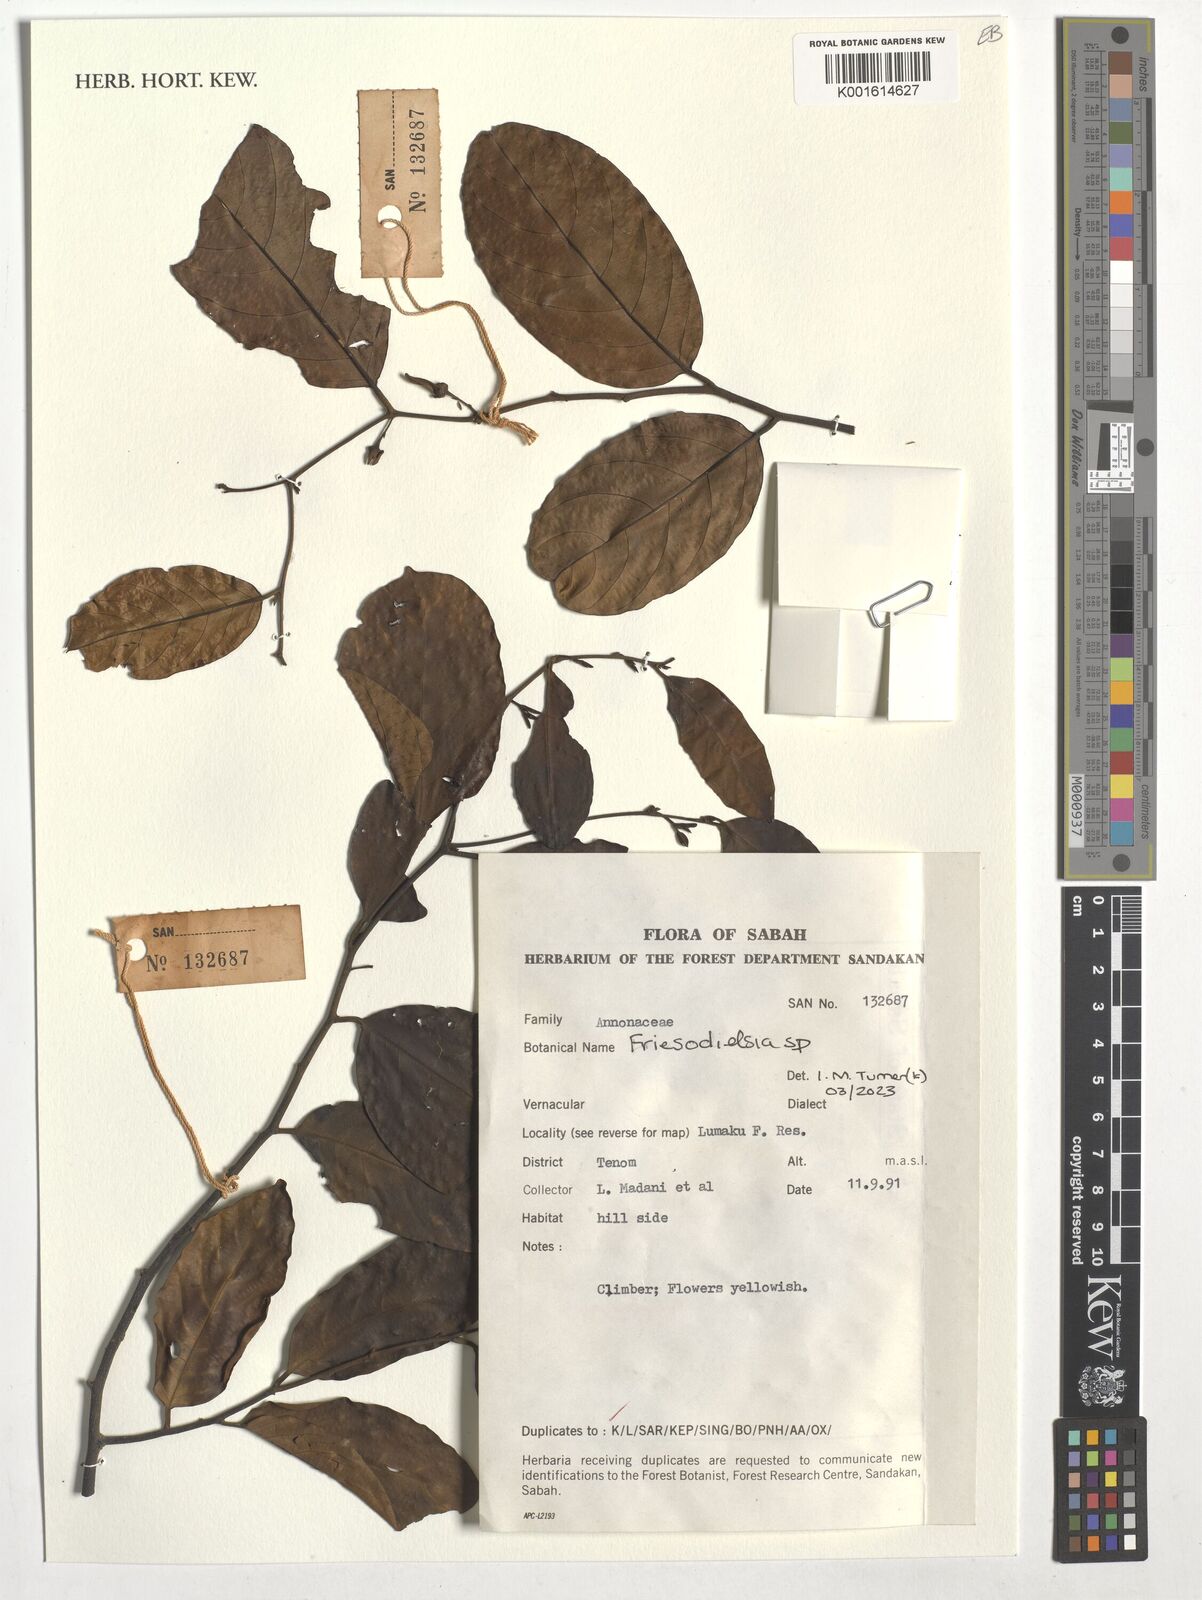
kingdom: Plantae
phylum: Tracheophyta
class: Magnoliopsida
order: Magnoliales
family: Annonaceae
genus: Friesodielsia
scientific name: Friesodielsia
